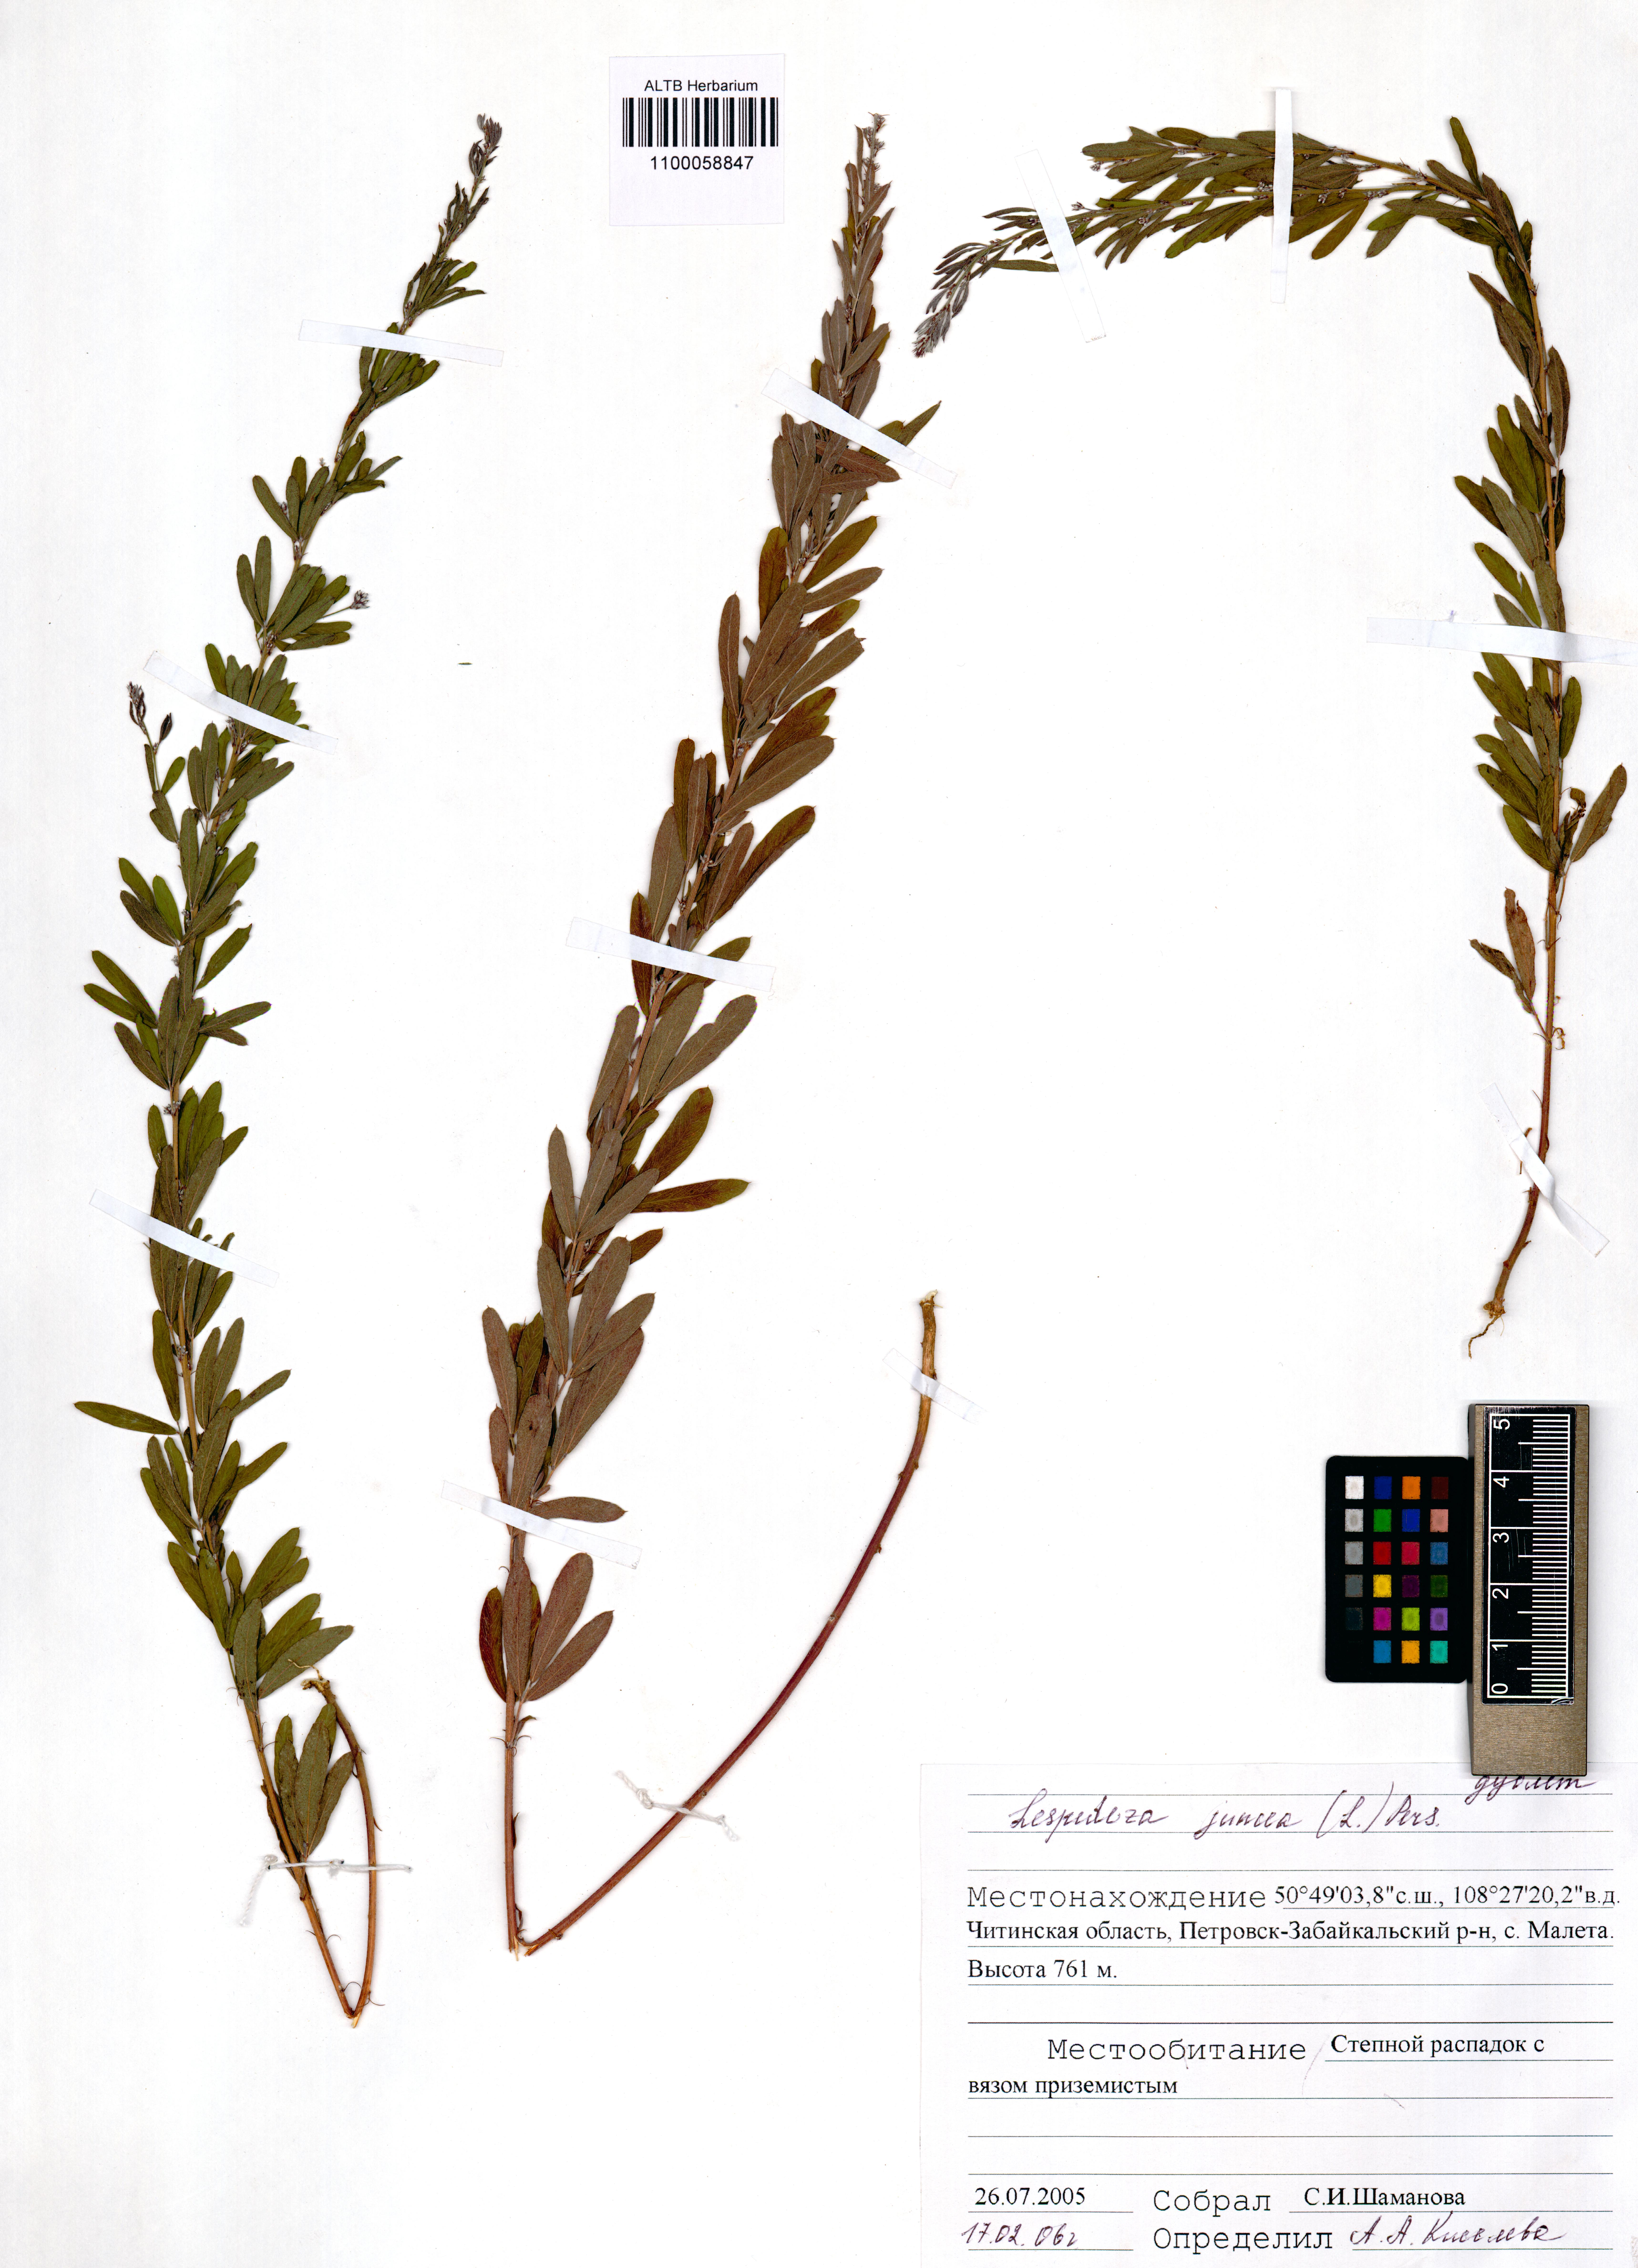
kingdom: Plantae
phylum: Tracheophyta
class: Magnoliopsida
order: Fabales
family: Fabaceae
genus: Lespedeza
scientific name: Lespedeza juncea
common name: Siberian lespedeza
